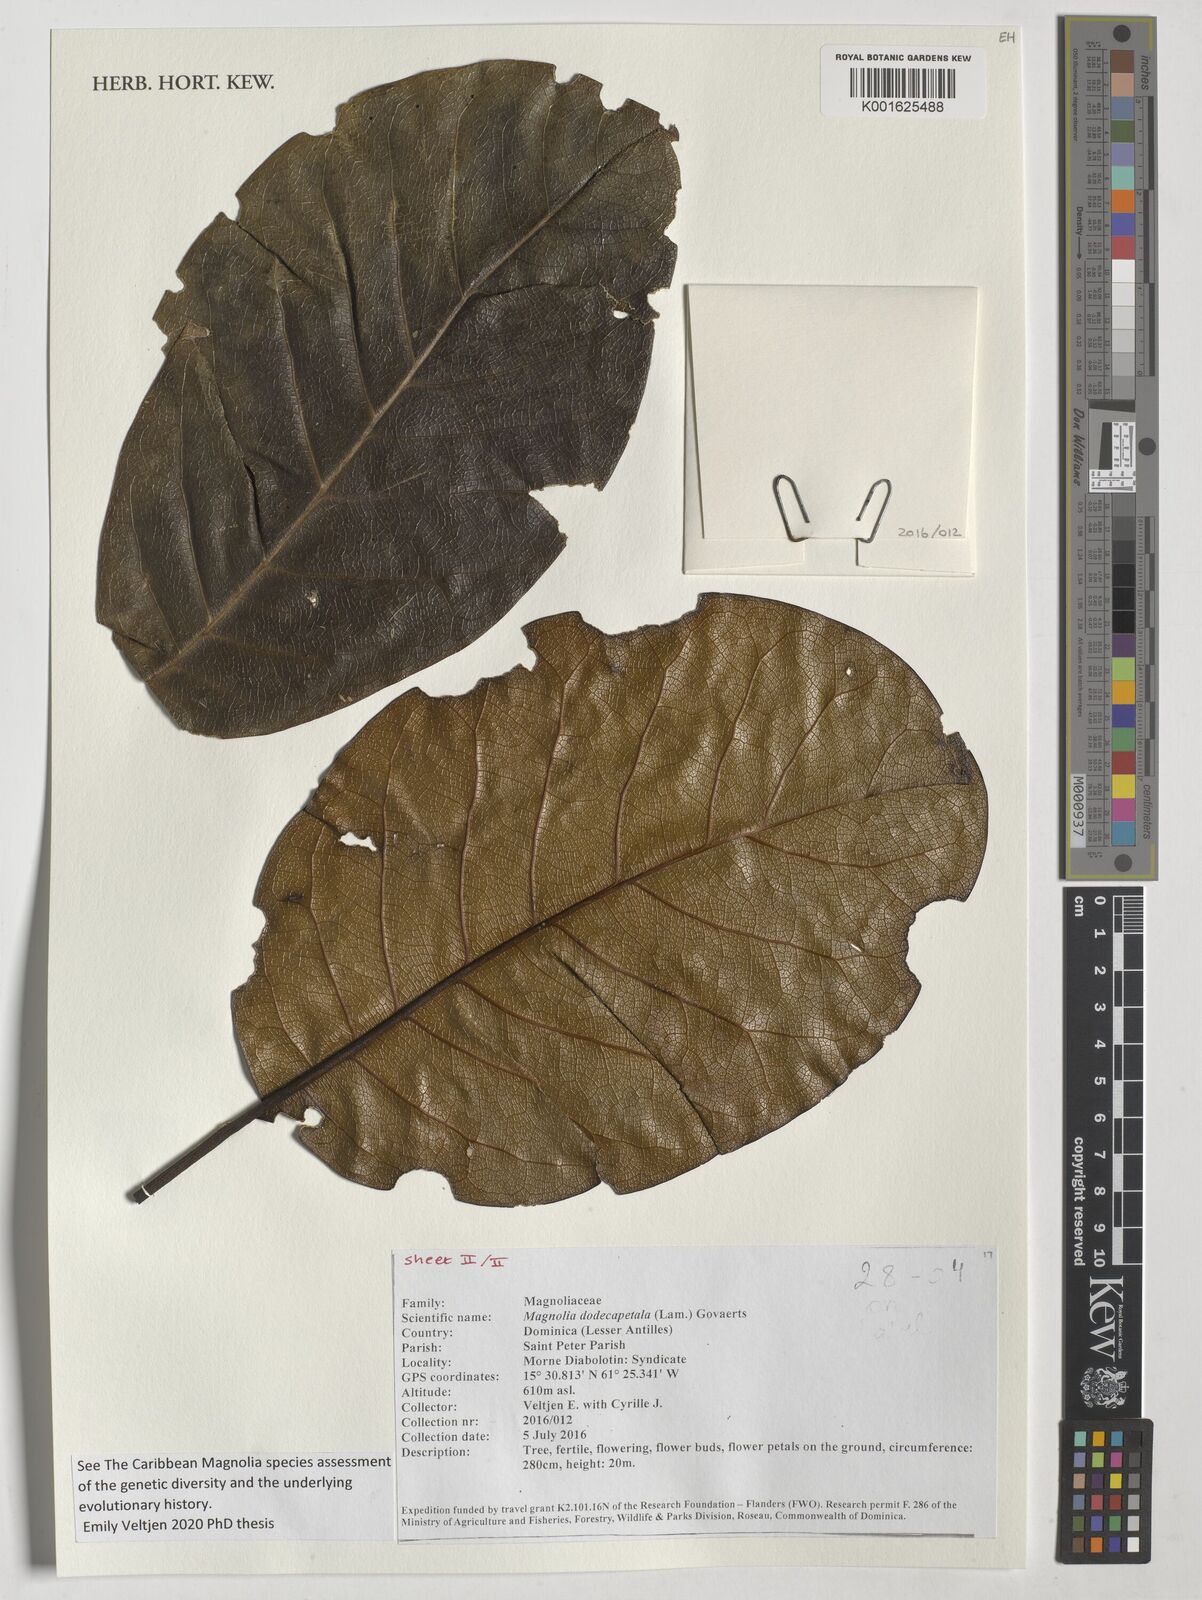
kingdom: Plantae
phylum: Tracheophyta
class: Magnoliopsida
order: Magnoliales
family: Magnoliaceae
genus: Magnolia
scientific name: Magnolia dodecapetala
